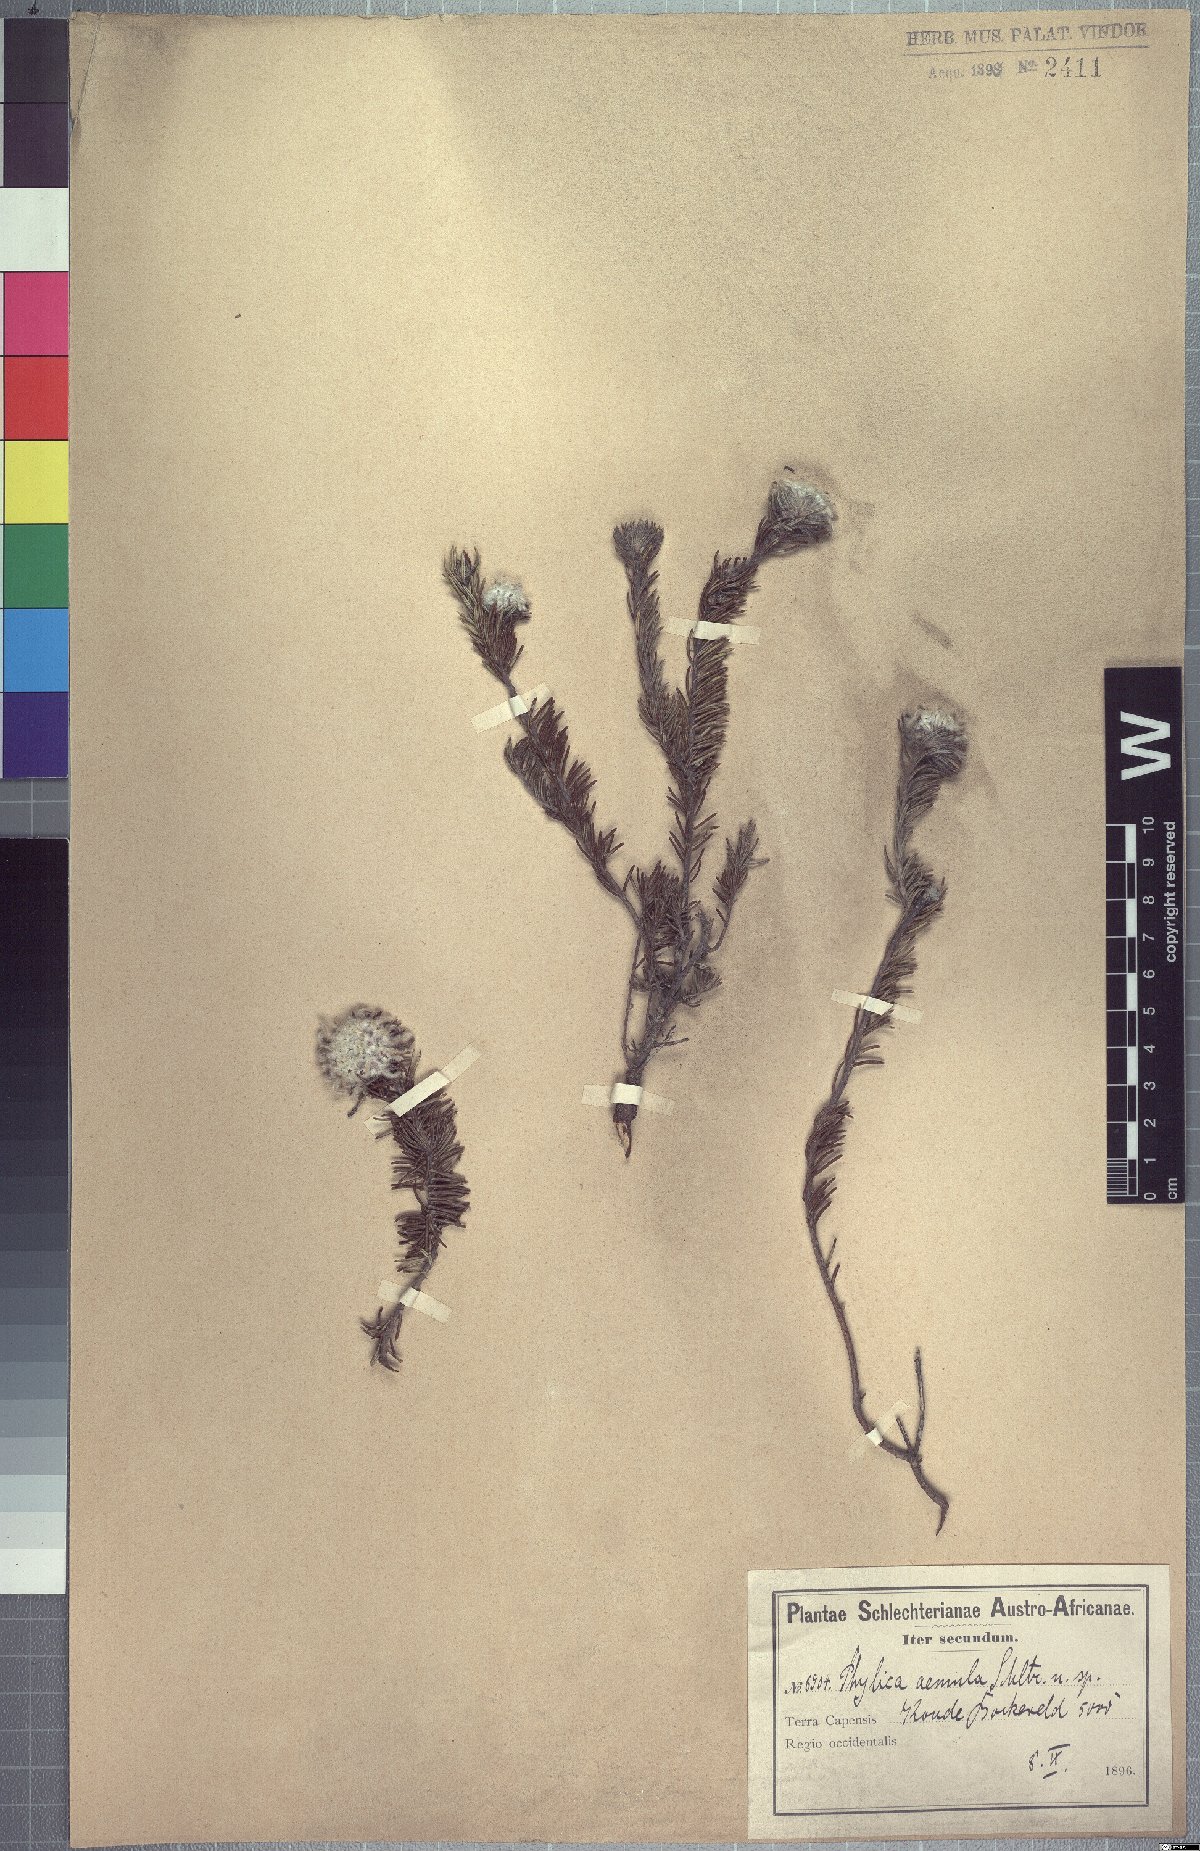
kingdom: Plantae
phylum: Tracheophyta
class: Magnoliopsida
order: Rosales
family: Rhamnaceae
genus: Phylica
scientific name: Phylica aemula
